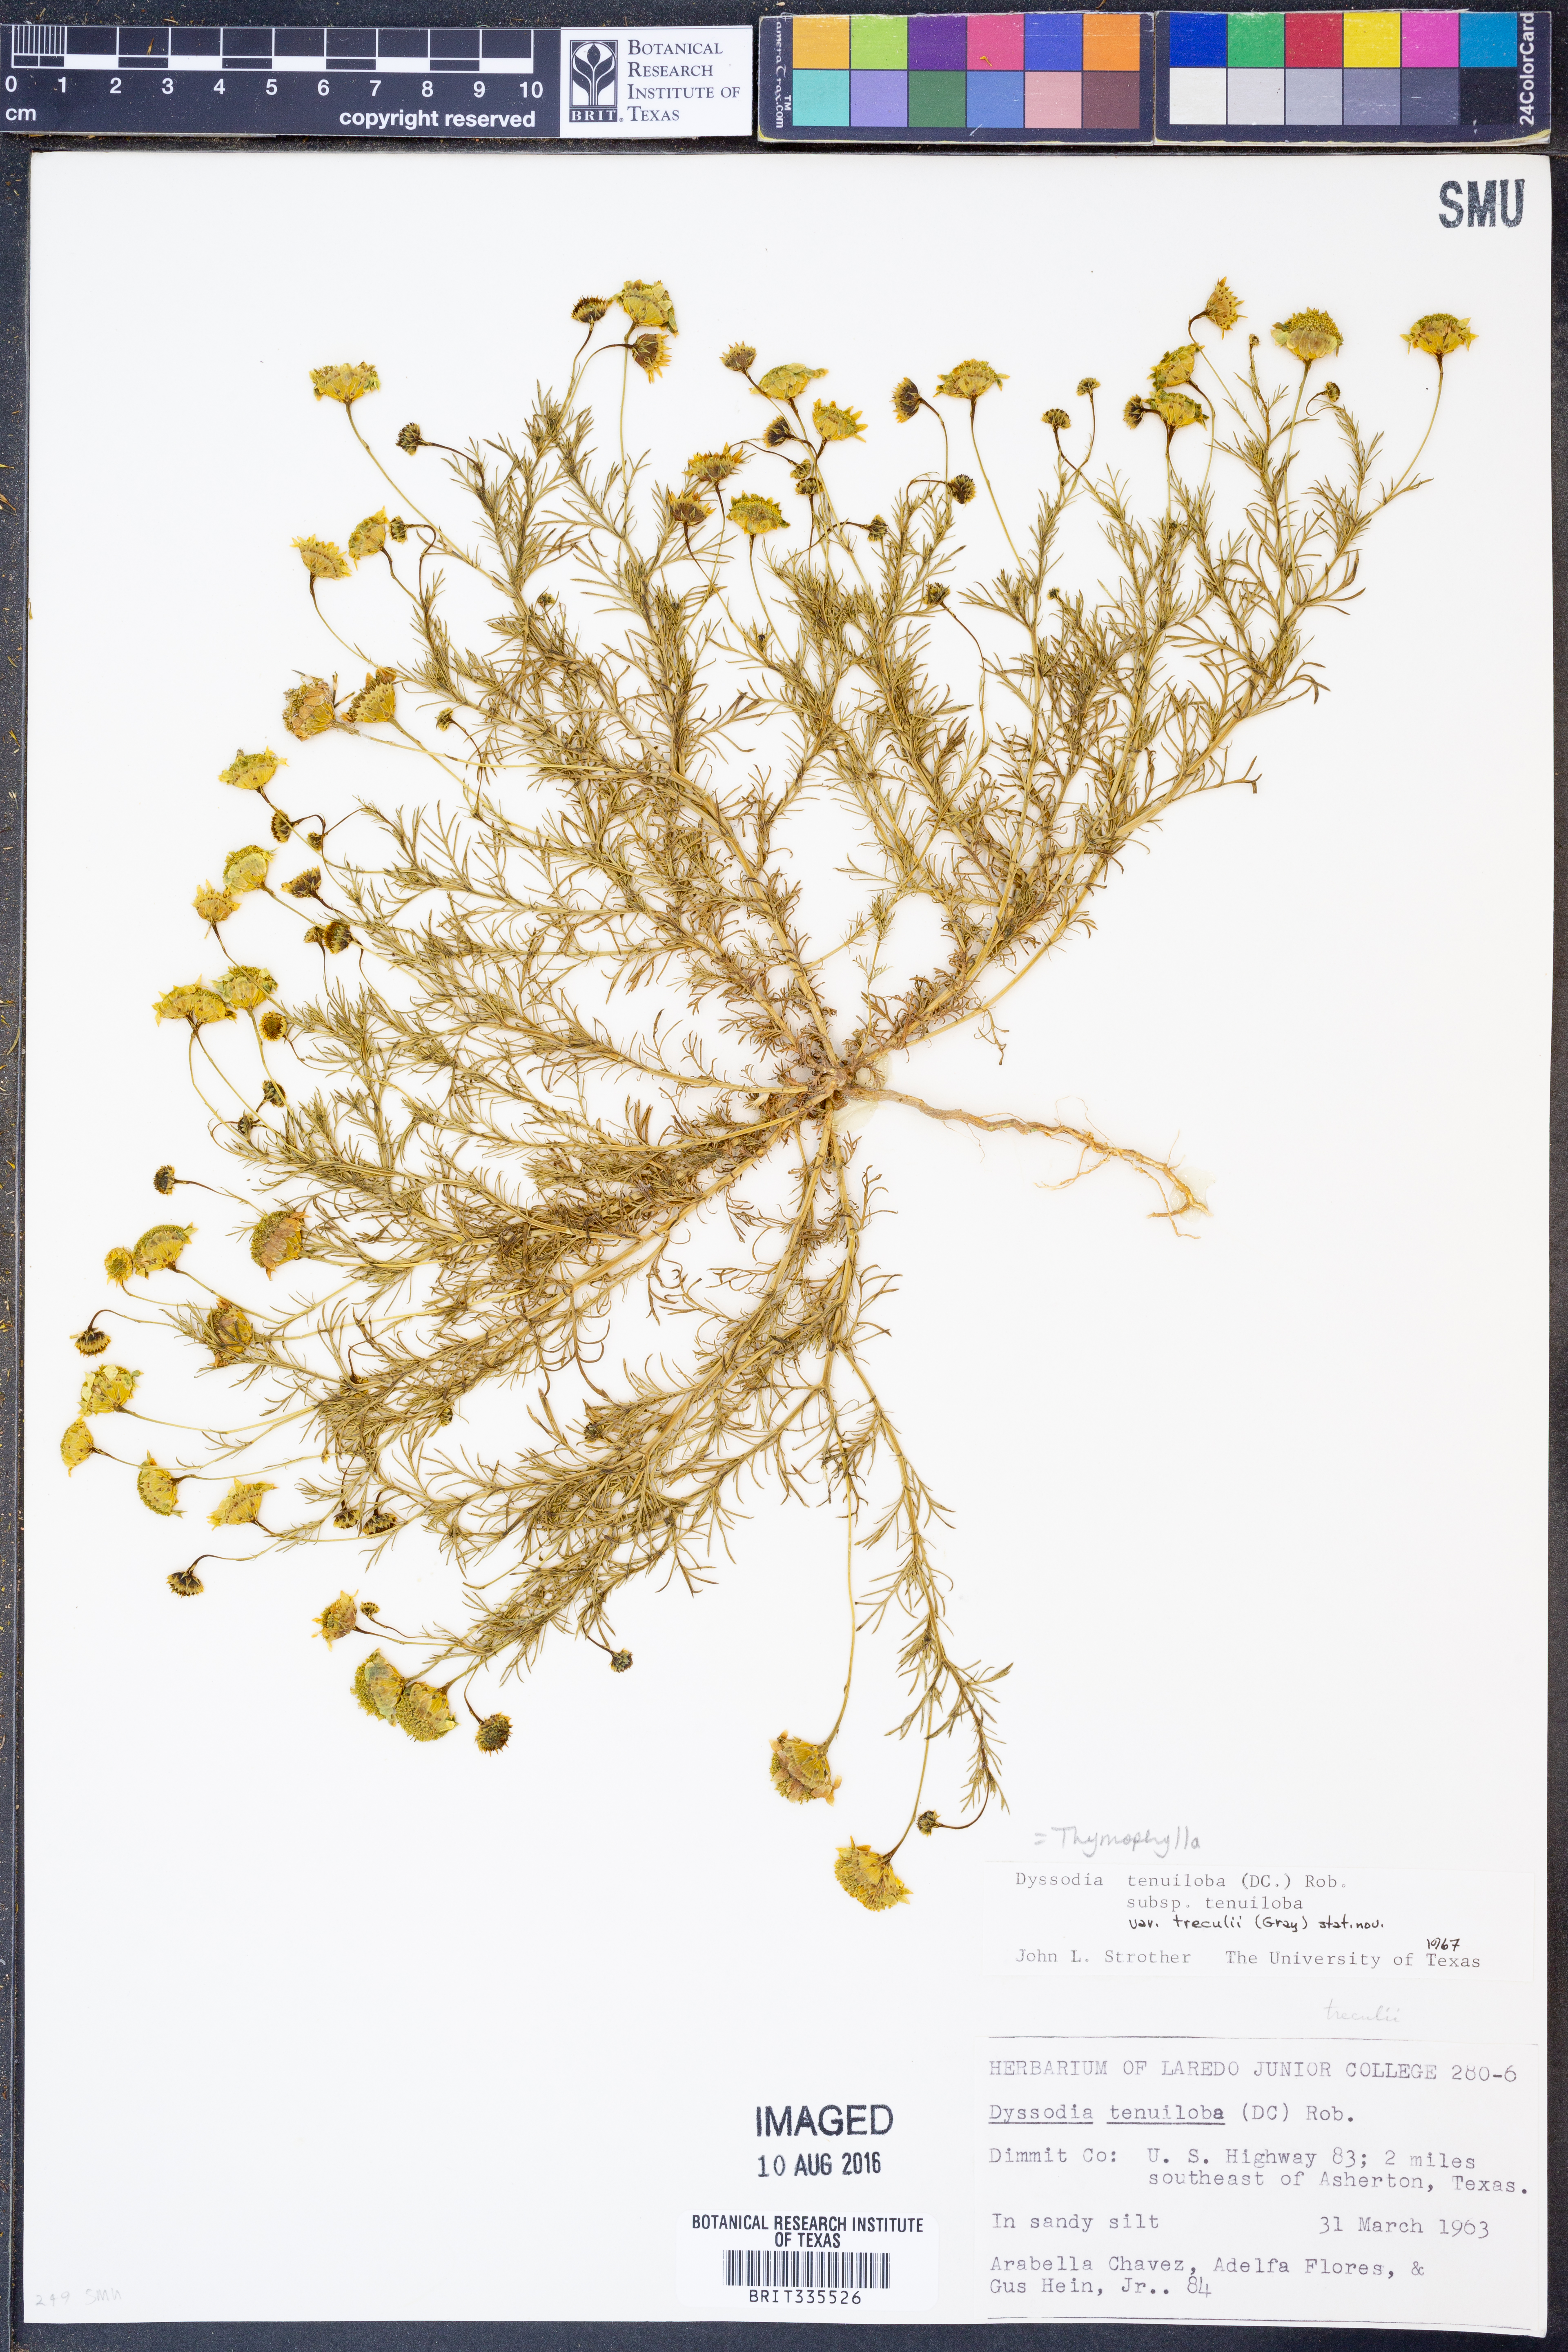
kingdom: Plantae
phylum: Tracheophyta
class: Magnoliopsida
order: Asterales
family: Asteraceae
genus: Thymophylla
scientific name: Thymophylla tenuiloba
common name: Dahlberg's daisy
